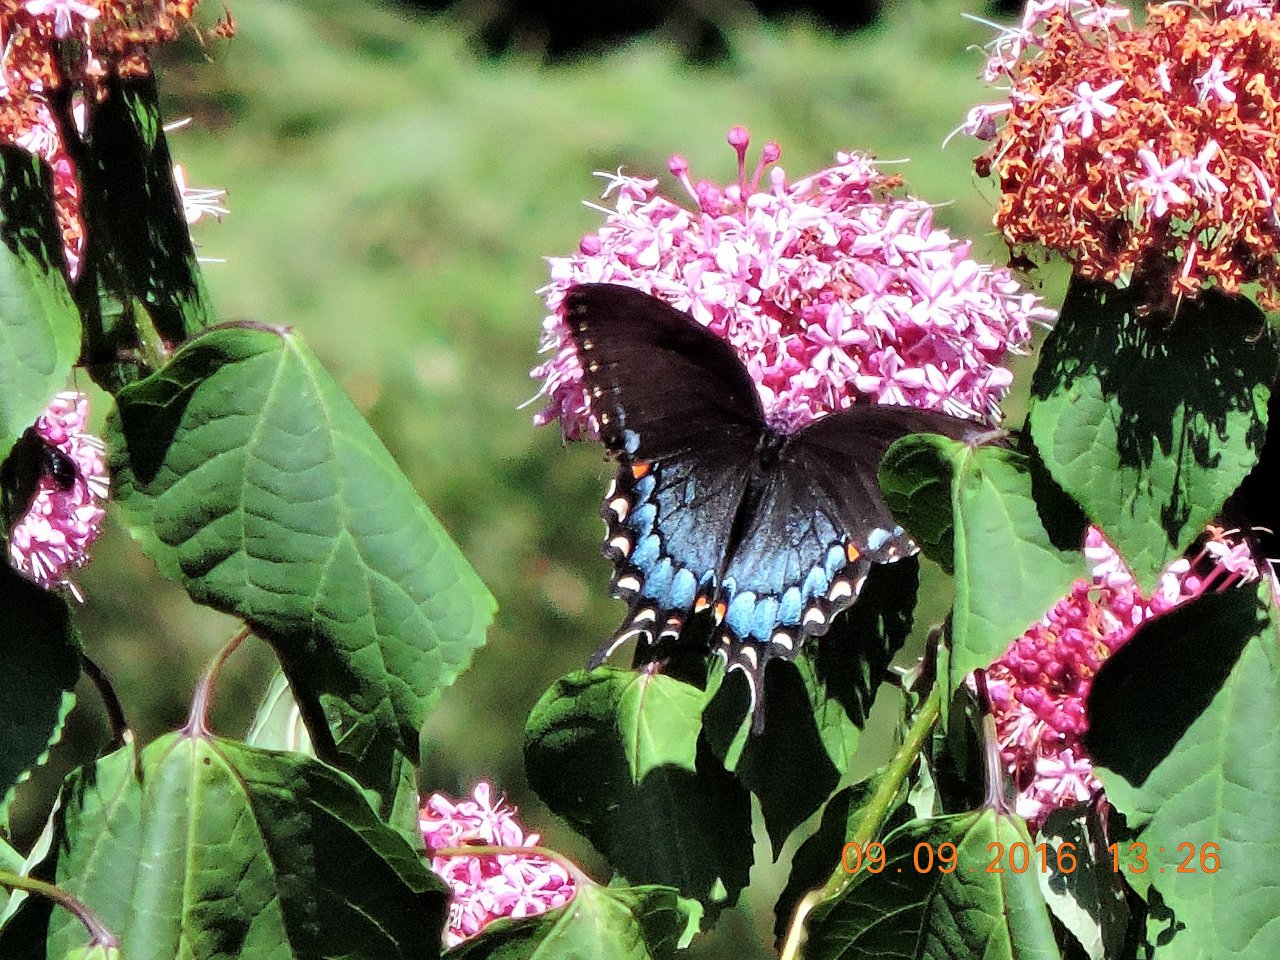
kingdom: Animalia
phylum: Arthropoda
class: Insecta
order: Lepidoptera
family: Papilionidae
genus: Pterourus
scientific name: Pterourus glaucus
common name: Eastern Tiger Swallowtail
